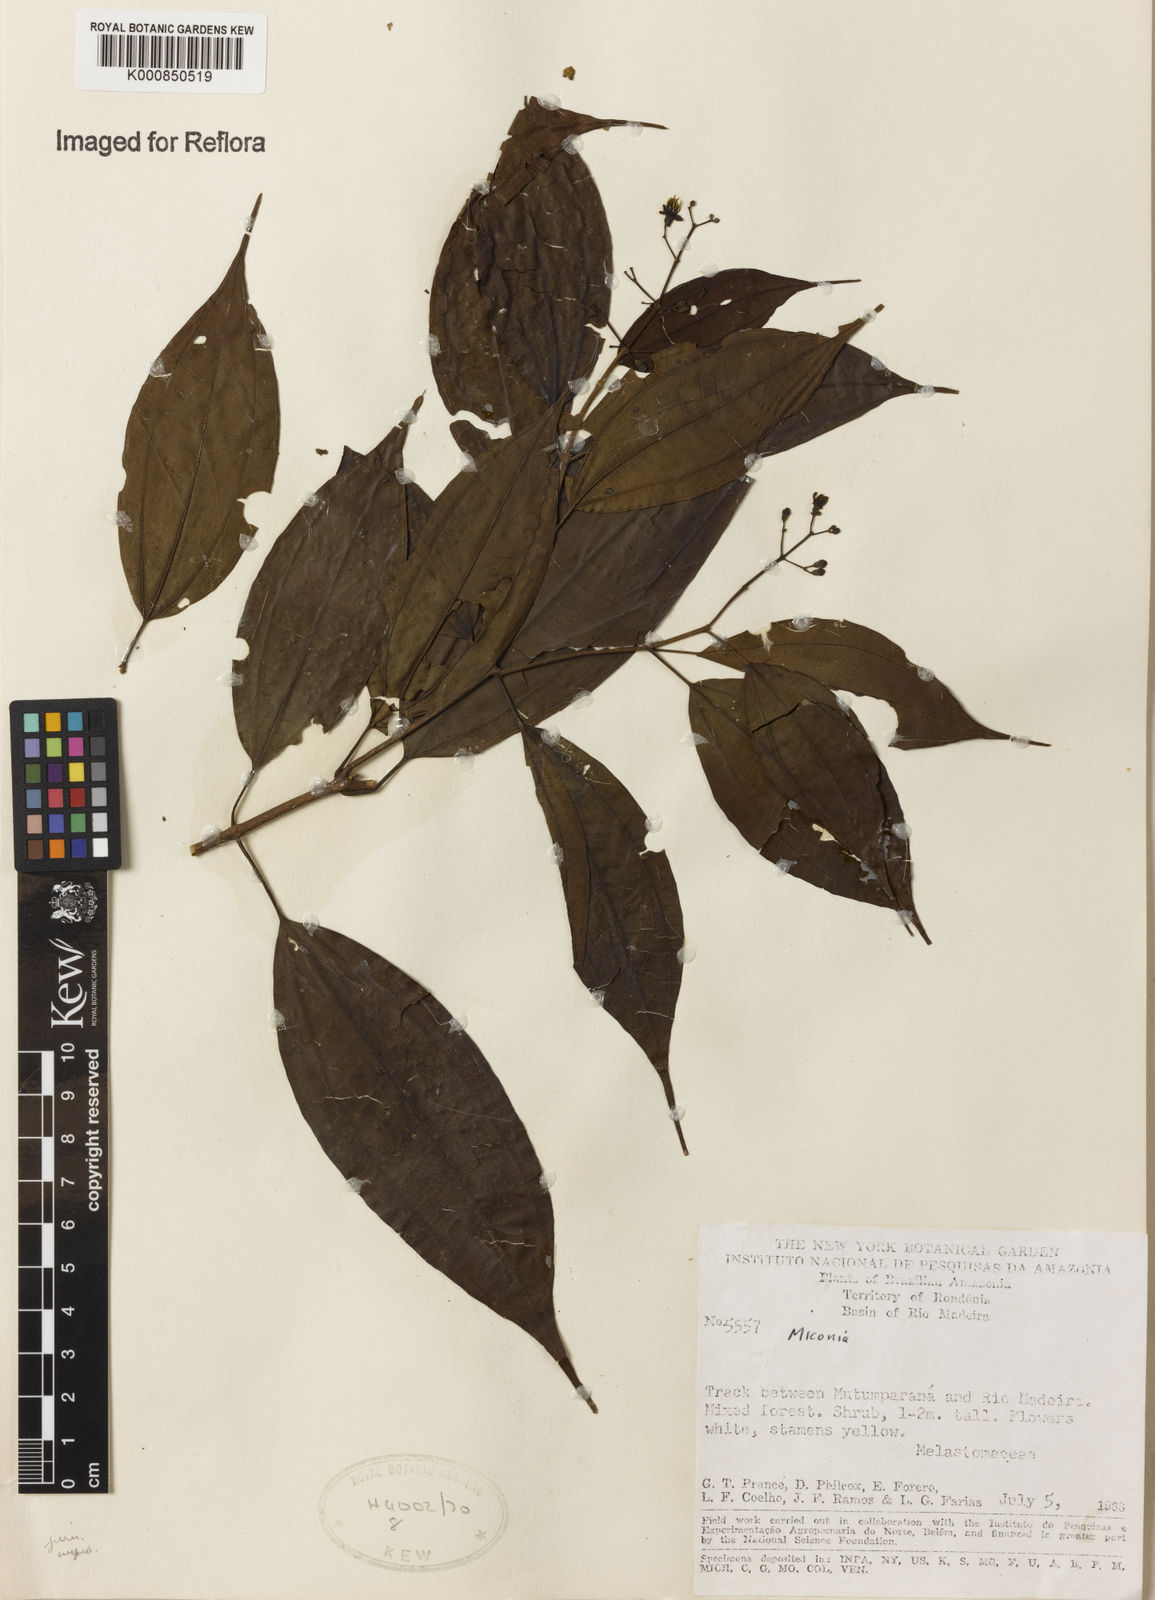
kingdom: Plantae
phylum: Tracheophyta
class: Magnoliopsida
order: Myrtales
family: Melastomataceae
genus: Miconia
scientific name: Miconia
